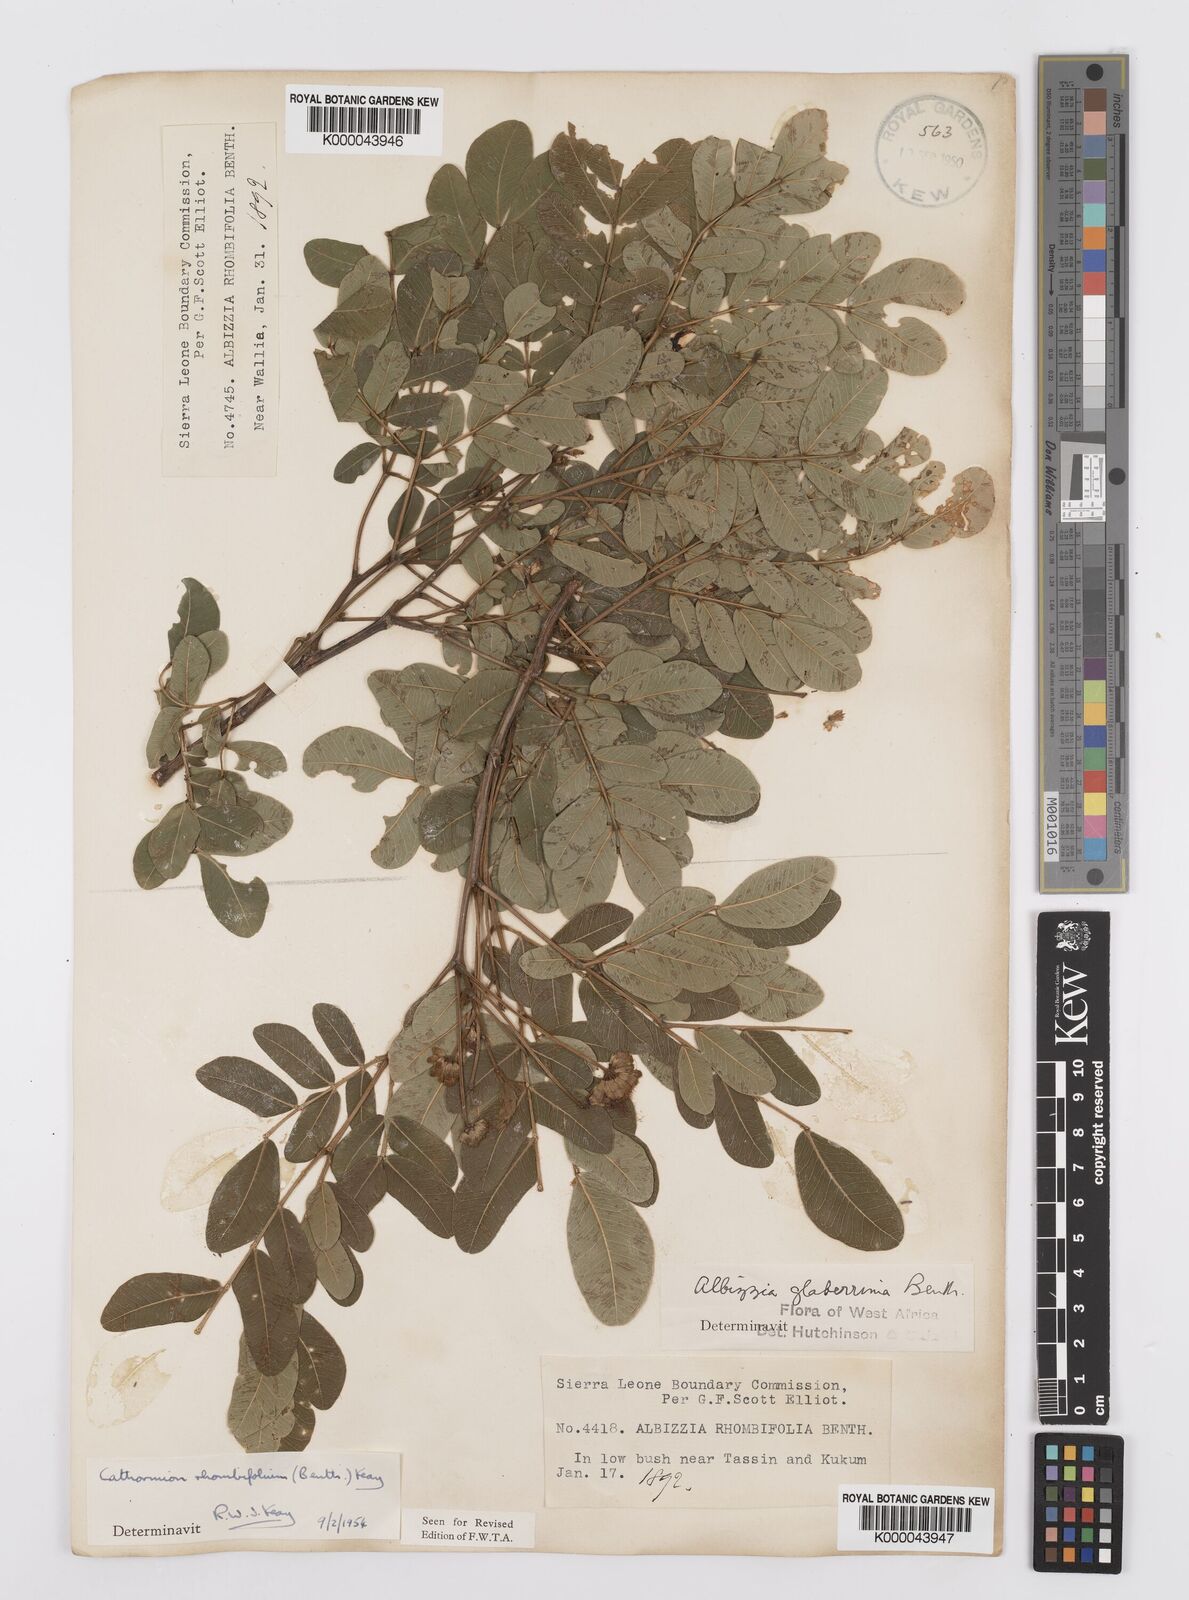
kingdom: Plantae
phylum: Tracheophyta
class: Magnoliopsida
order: Fabales
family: Fabaceae
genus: Albizia
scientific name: Albizia rhombifolia
